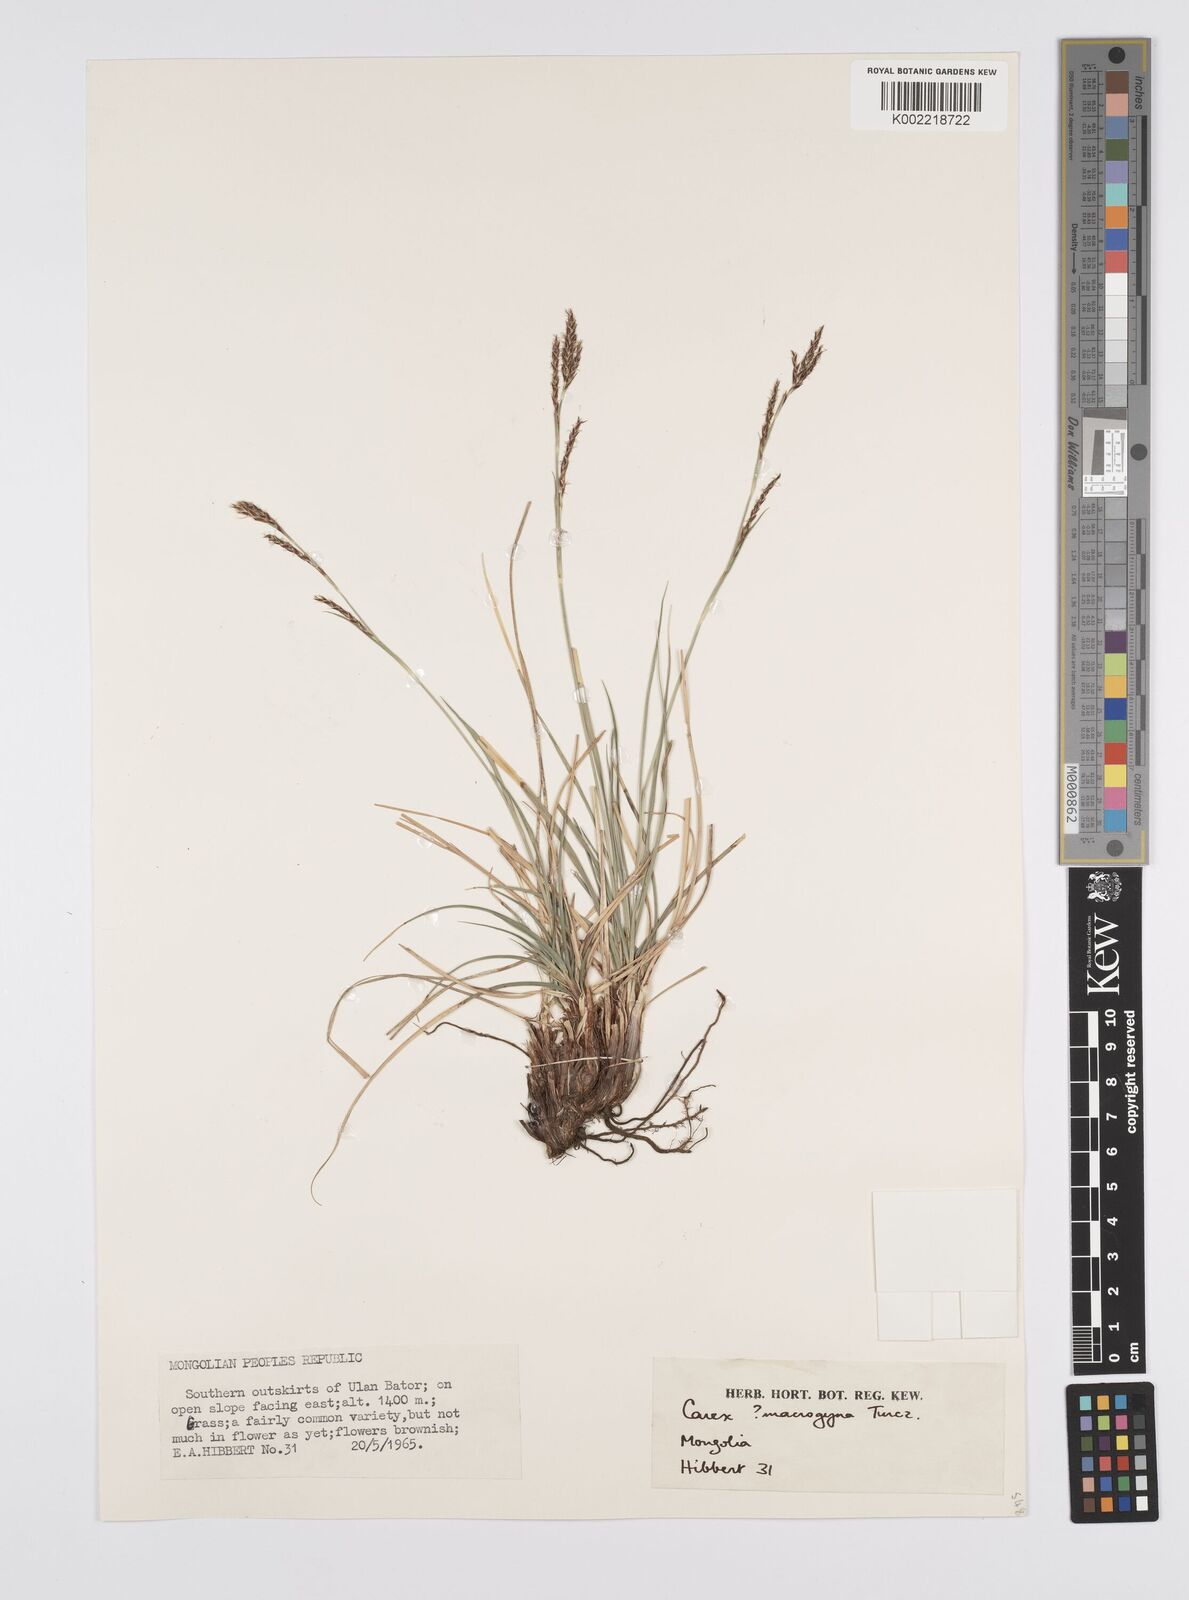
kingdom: Plantae
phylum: Tracheophyta
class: Liliopsida
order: Poales
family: Cyperaceae
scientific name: Cyperaceae
